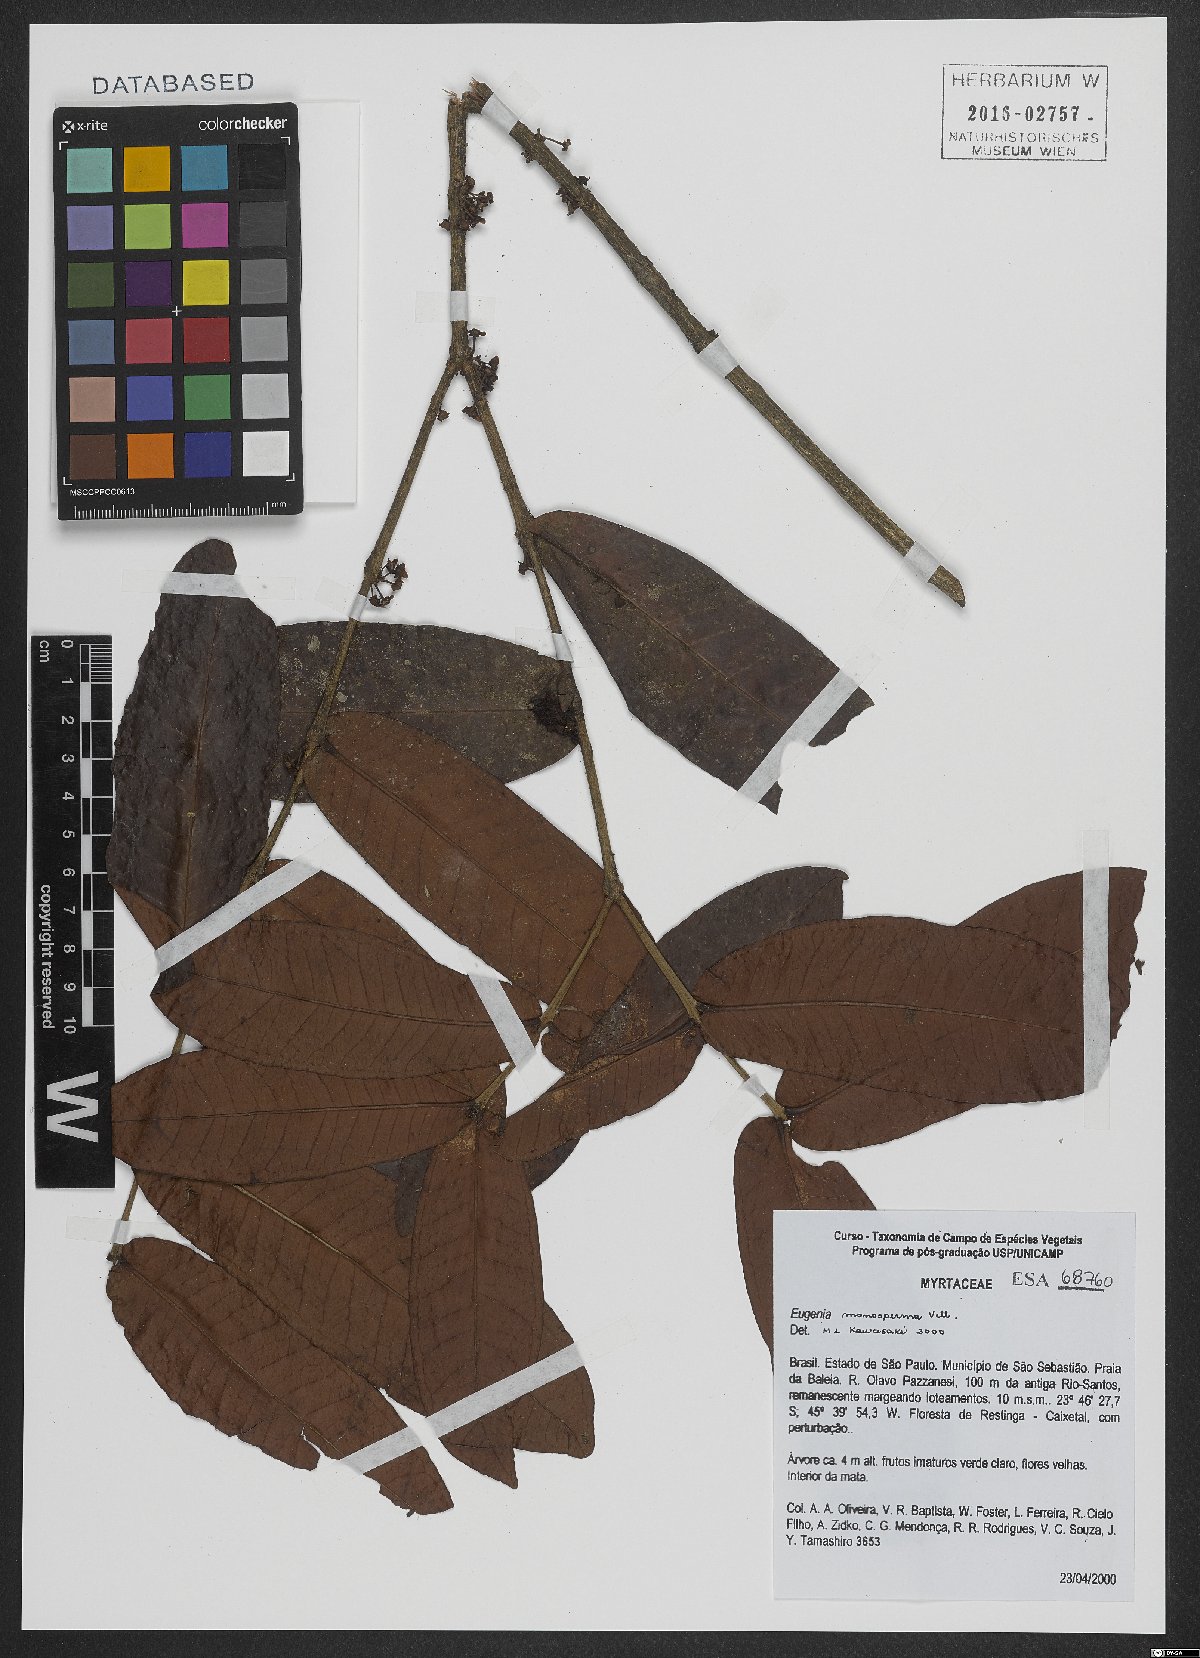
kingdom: Plantae
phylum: Tracheophyta
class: Magnoliopsida
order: Myrtales
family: Myrtaceae
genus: Eugenia
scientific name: Eugenia monosperma
